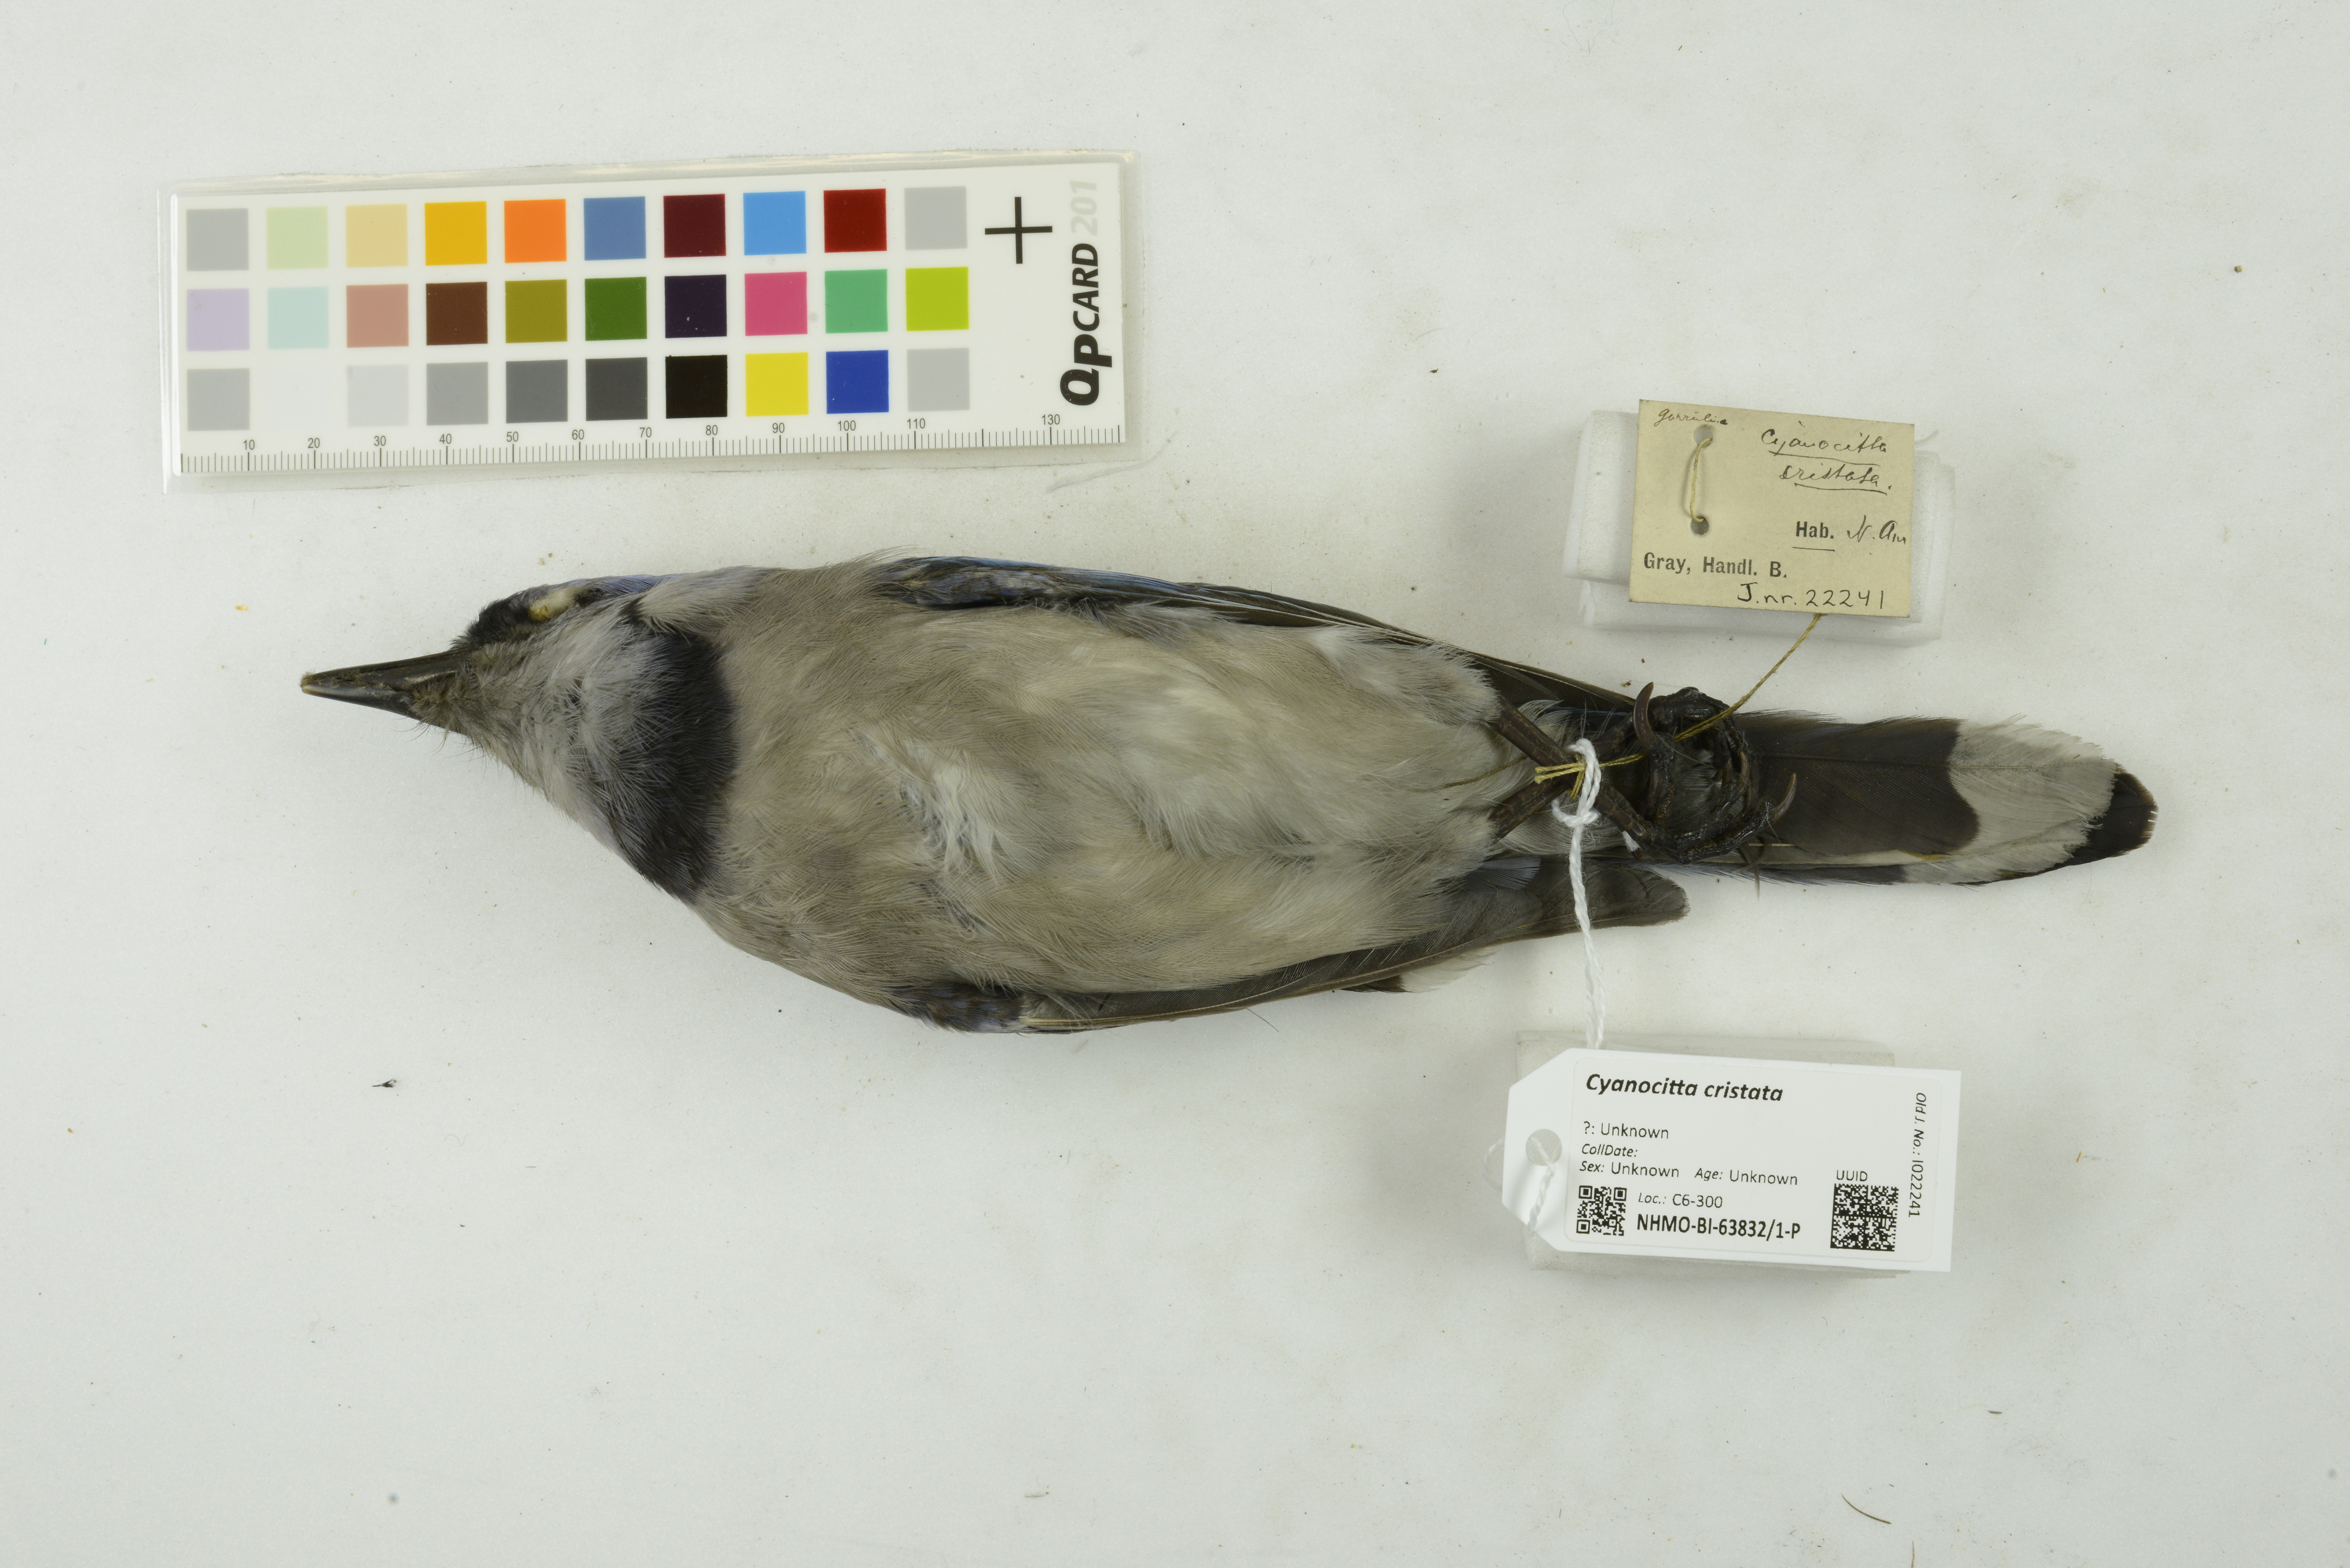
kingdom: Animalia
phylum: Chordata
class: Aves
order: Passeriformes
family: Corvidae
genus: Cyanocitta
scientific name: Cyanocitta cristata
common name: Blue jay
